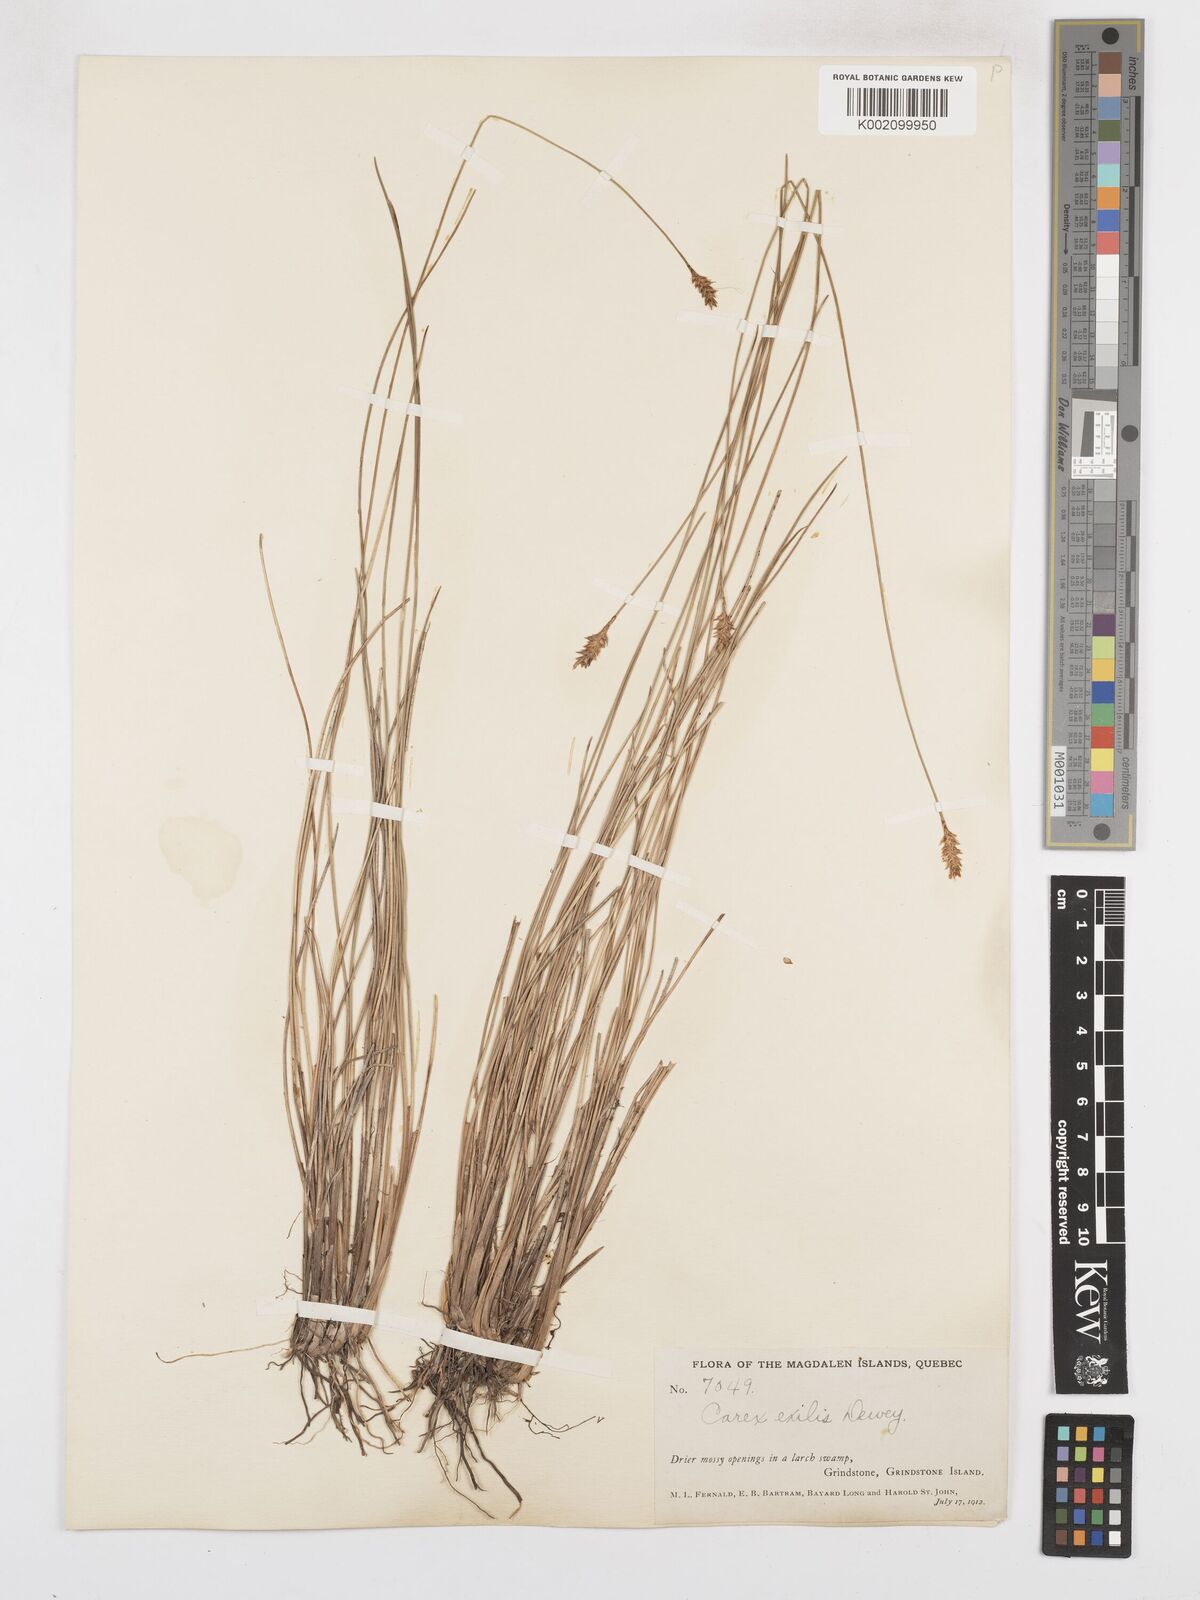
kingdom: Plantae
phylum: Tracheophyta
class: Liliopsida
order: Poales
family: Cyperaceae
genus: Carex
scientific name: Carex exilis
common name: Coastal sedge
